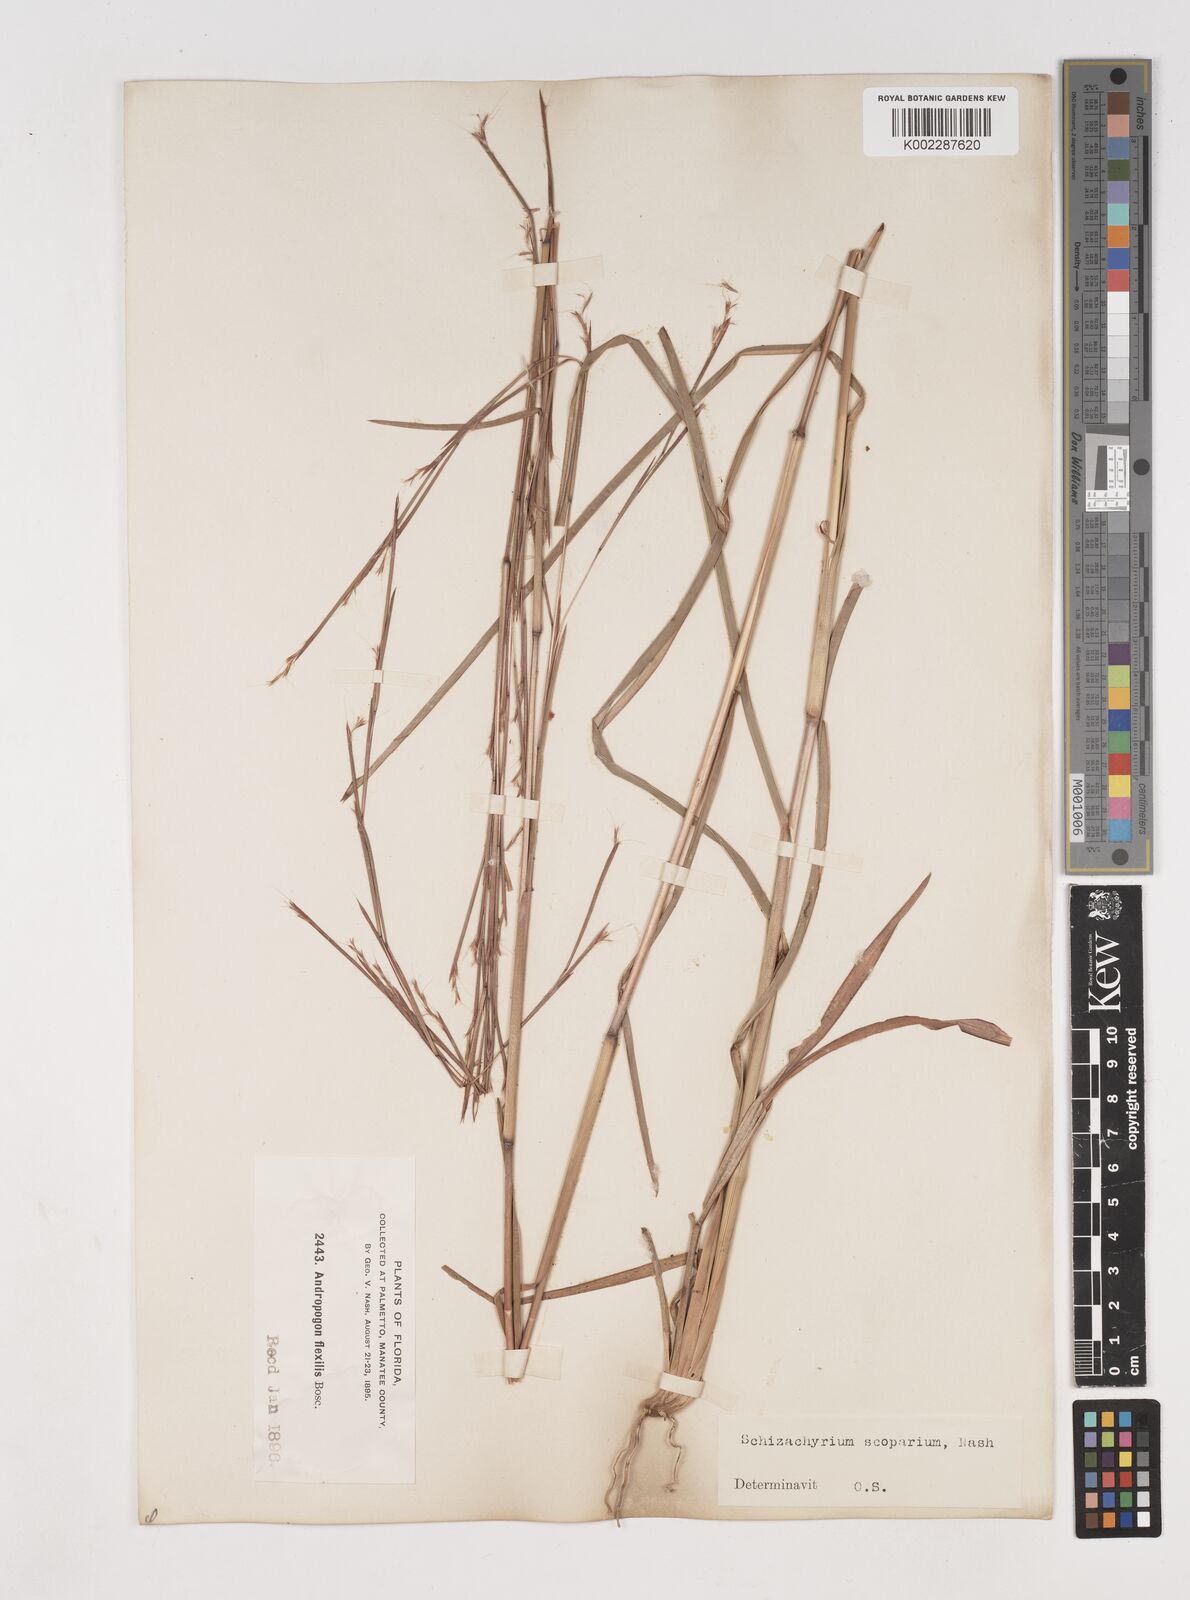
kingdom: Plantae
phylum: Tracheophyta
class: Liliopsida
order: Poales
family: Poaceae
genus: Schizachyrium
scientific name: Schizachyrium scoparium
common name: Little bluestem
